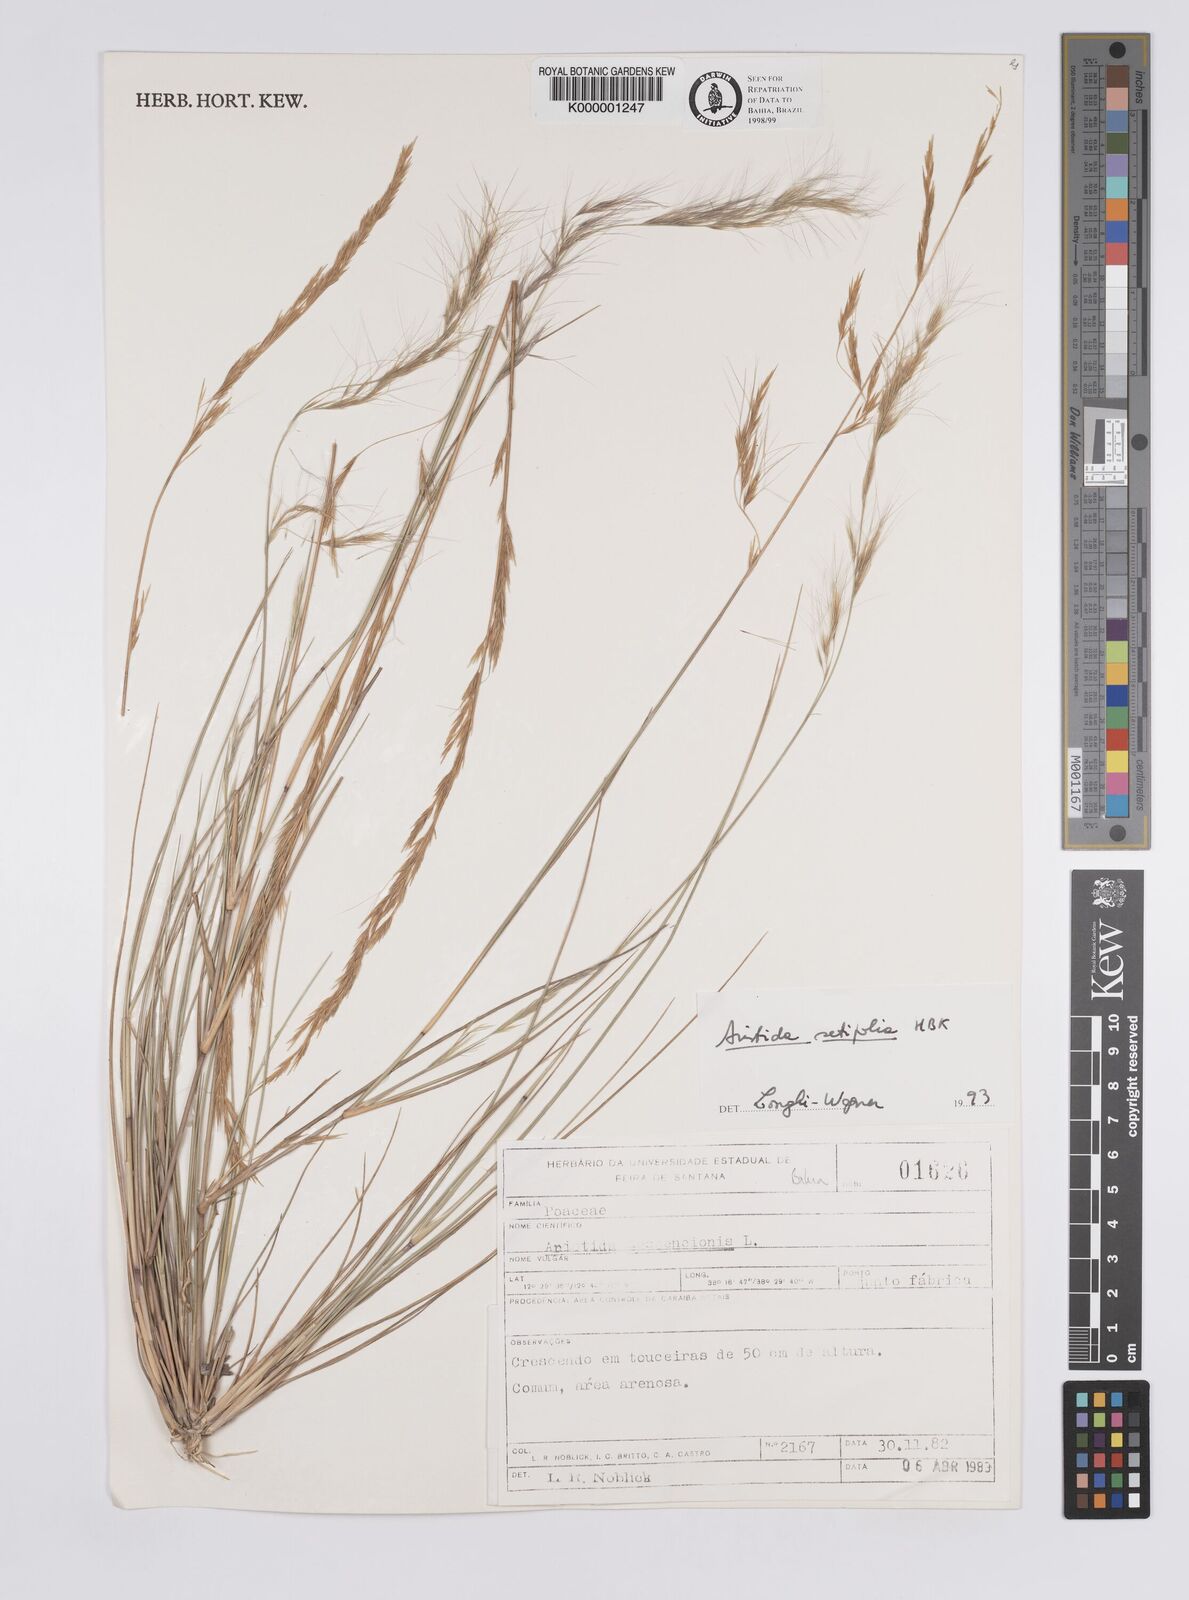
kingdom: Plantae
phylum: Tracheophyta
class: Liliopsida
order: Poales
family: Poaceae
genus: Aristida
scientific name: Aristida setifolia
